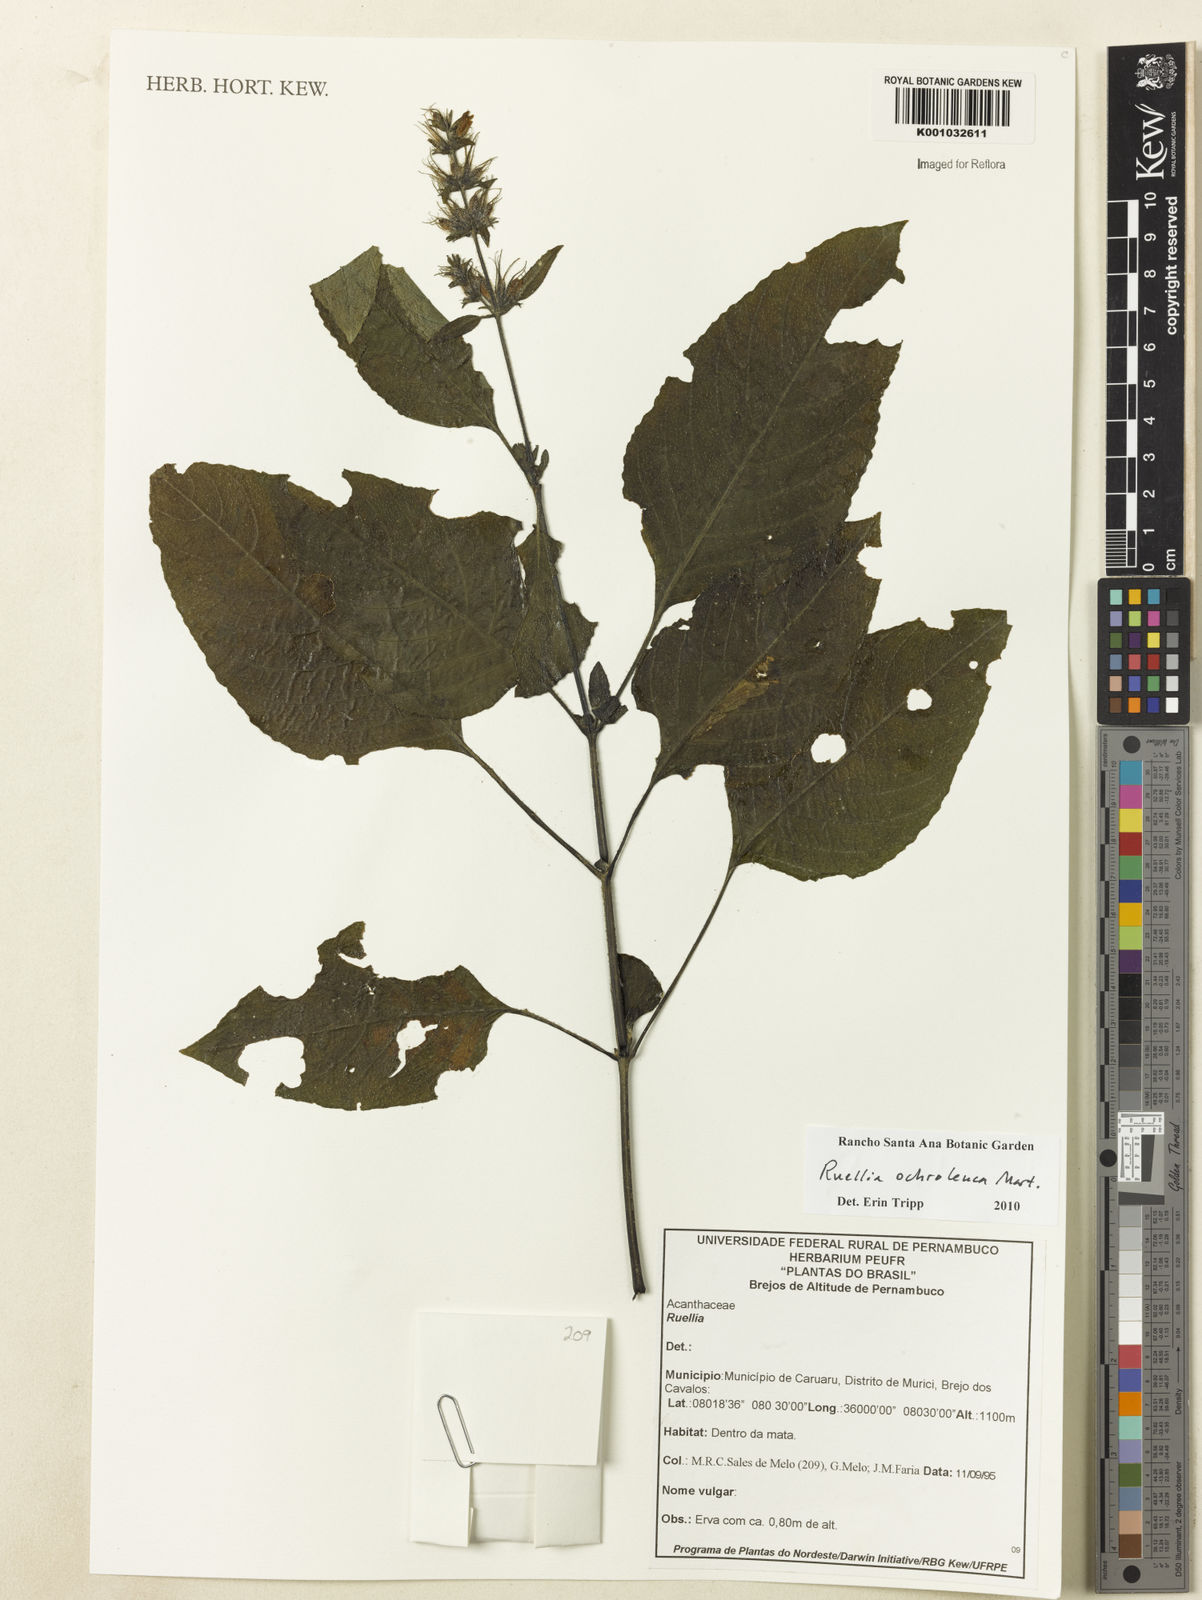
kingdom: Plantae
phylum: Tracheophyta
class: Magnoliopsida
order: Lamiales
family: Acanthaceae
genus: Ruellia
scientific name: Ruellia
